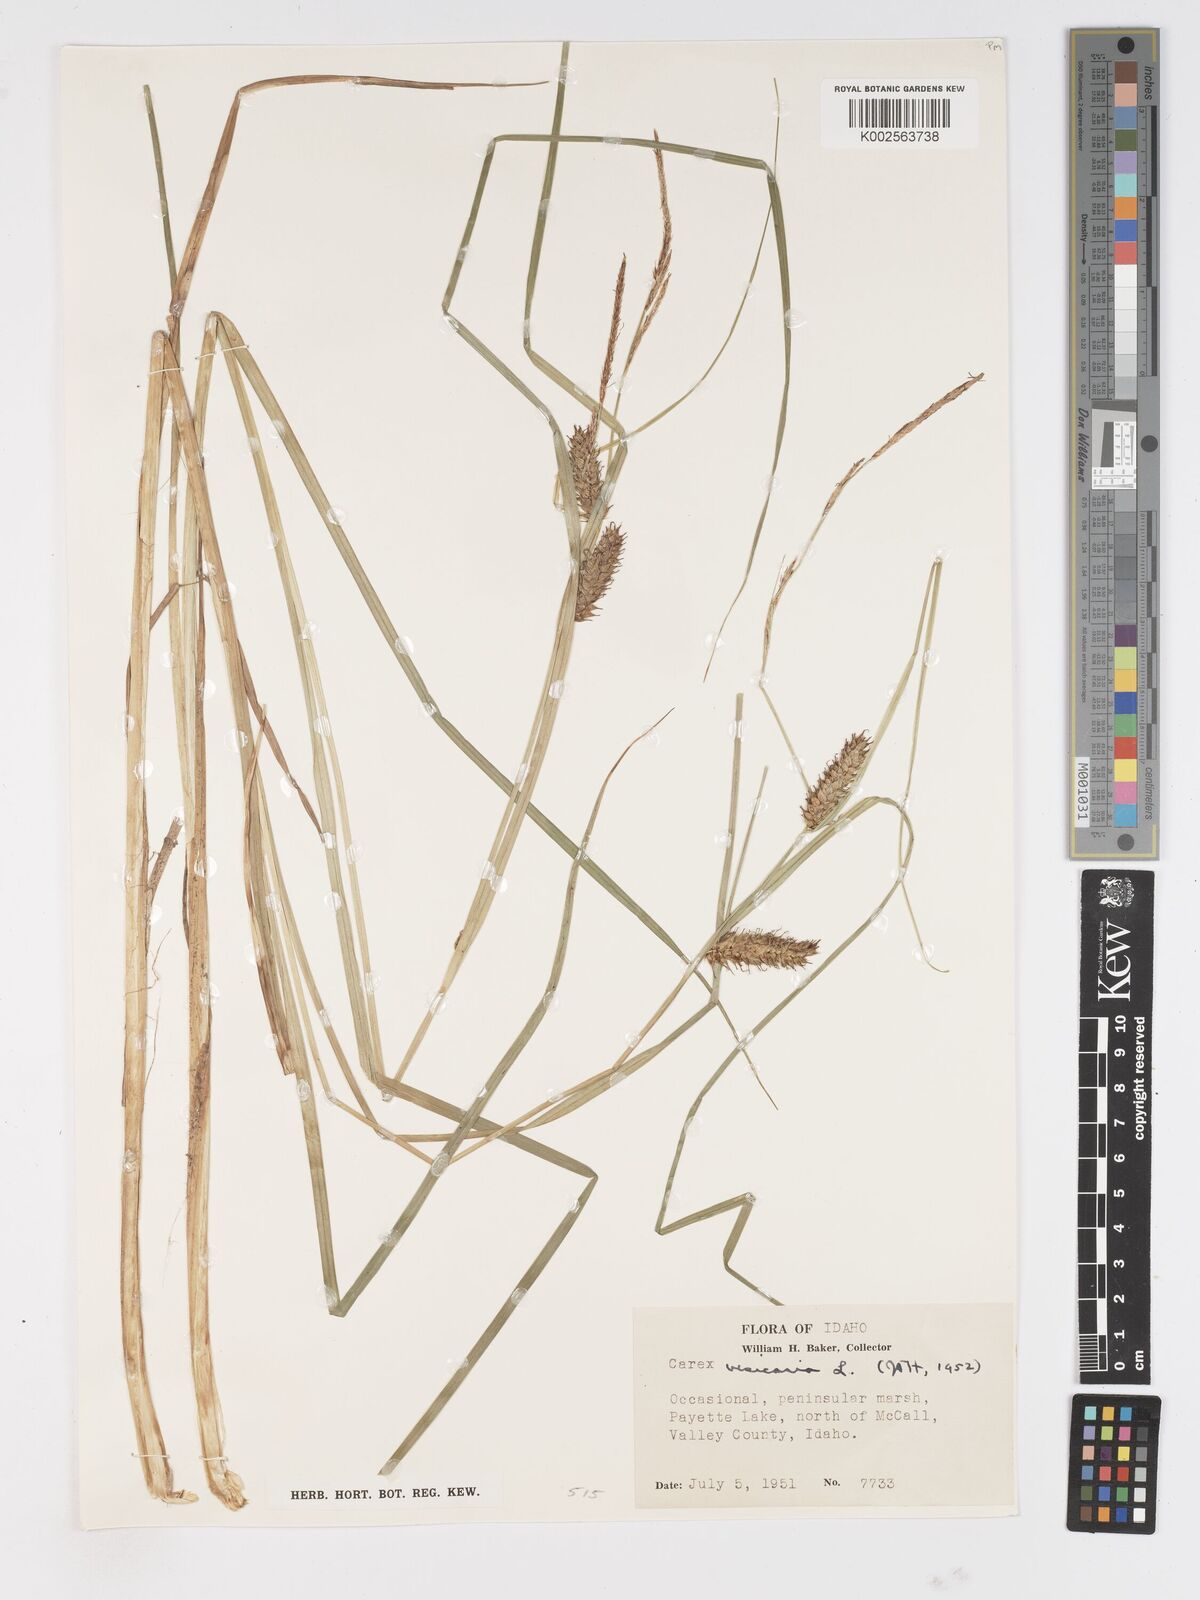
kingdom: Plantae
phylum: Tracheophyta
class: Liliopsida
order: Poales
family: Cyperaceae
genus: Carex
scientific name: Carex vesicaria
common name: Bladder-sedge
